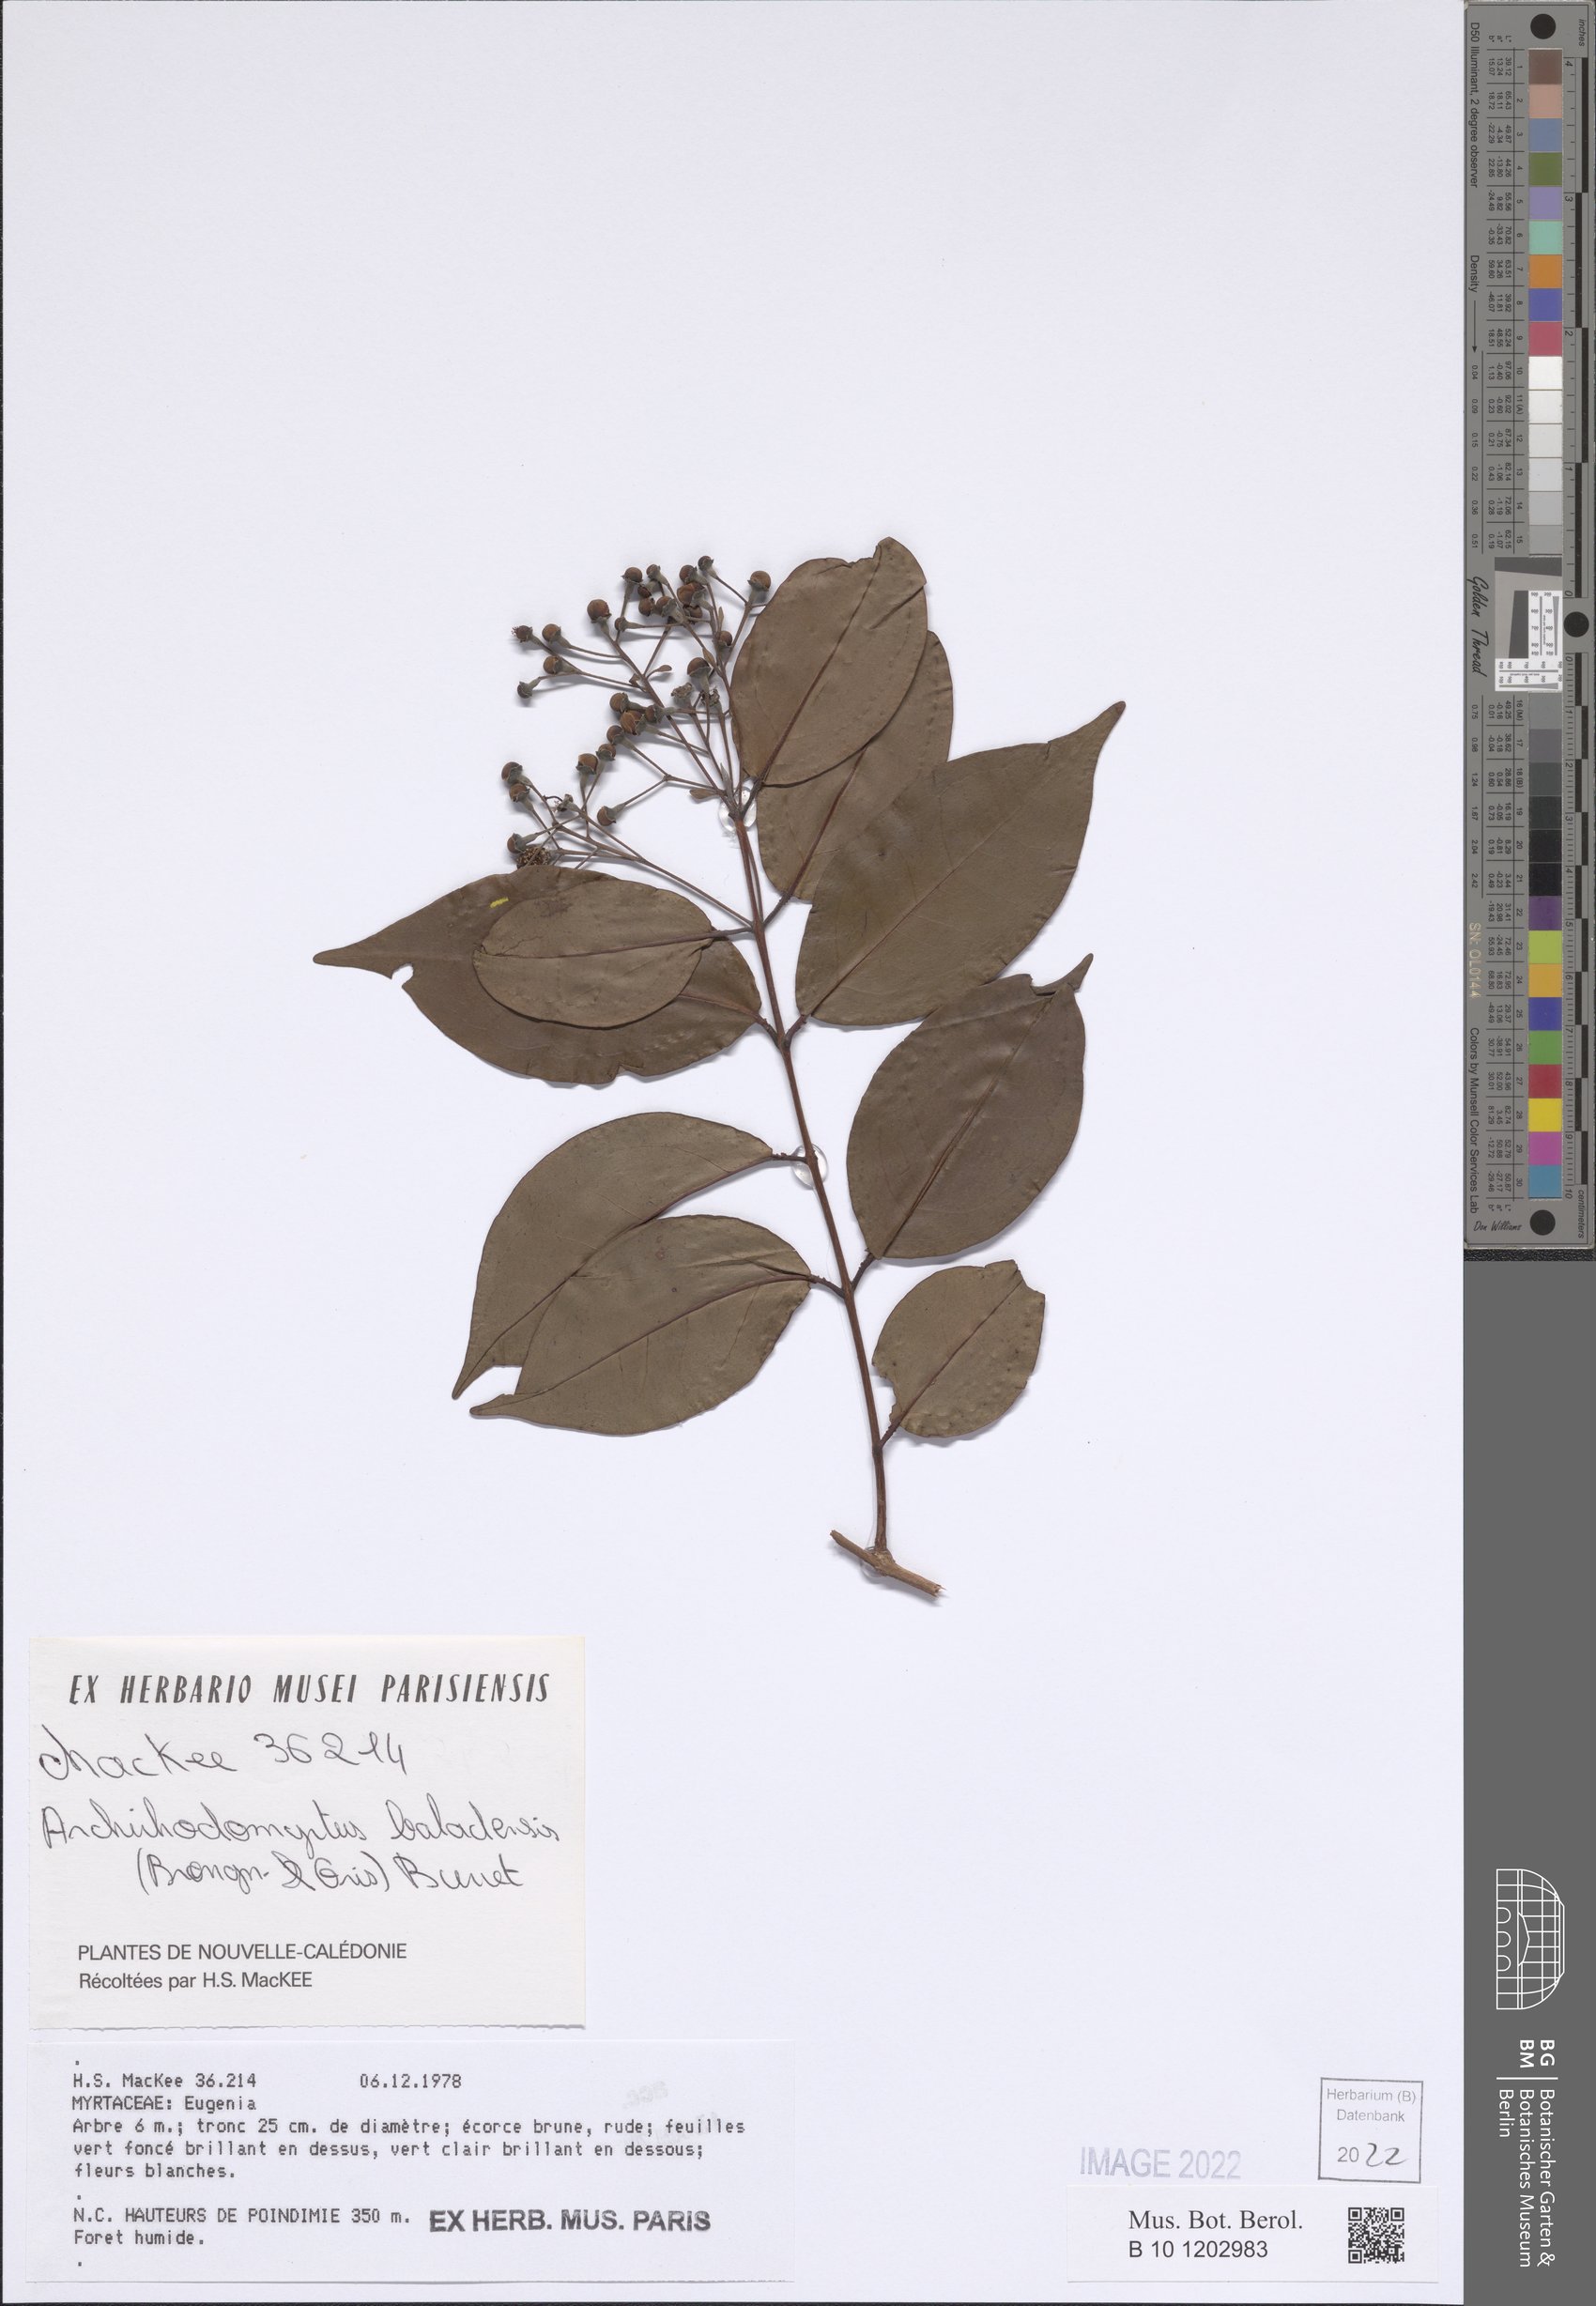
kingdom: Plantae
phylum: Tracheophyta
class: Magnoliopsida
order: Myrtales
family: Myrtaceae
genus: Archirhodomyrtus
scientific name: Archirhodomyrtus baladensis
